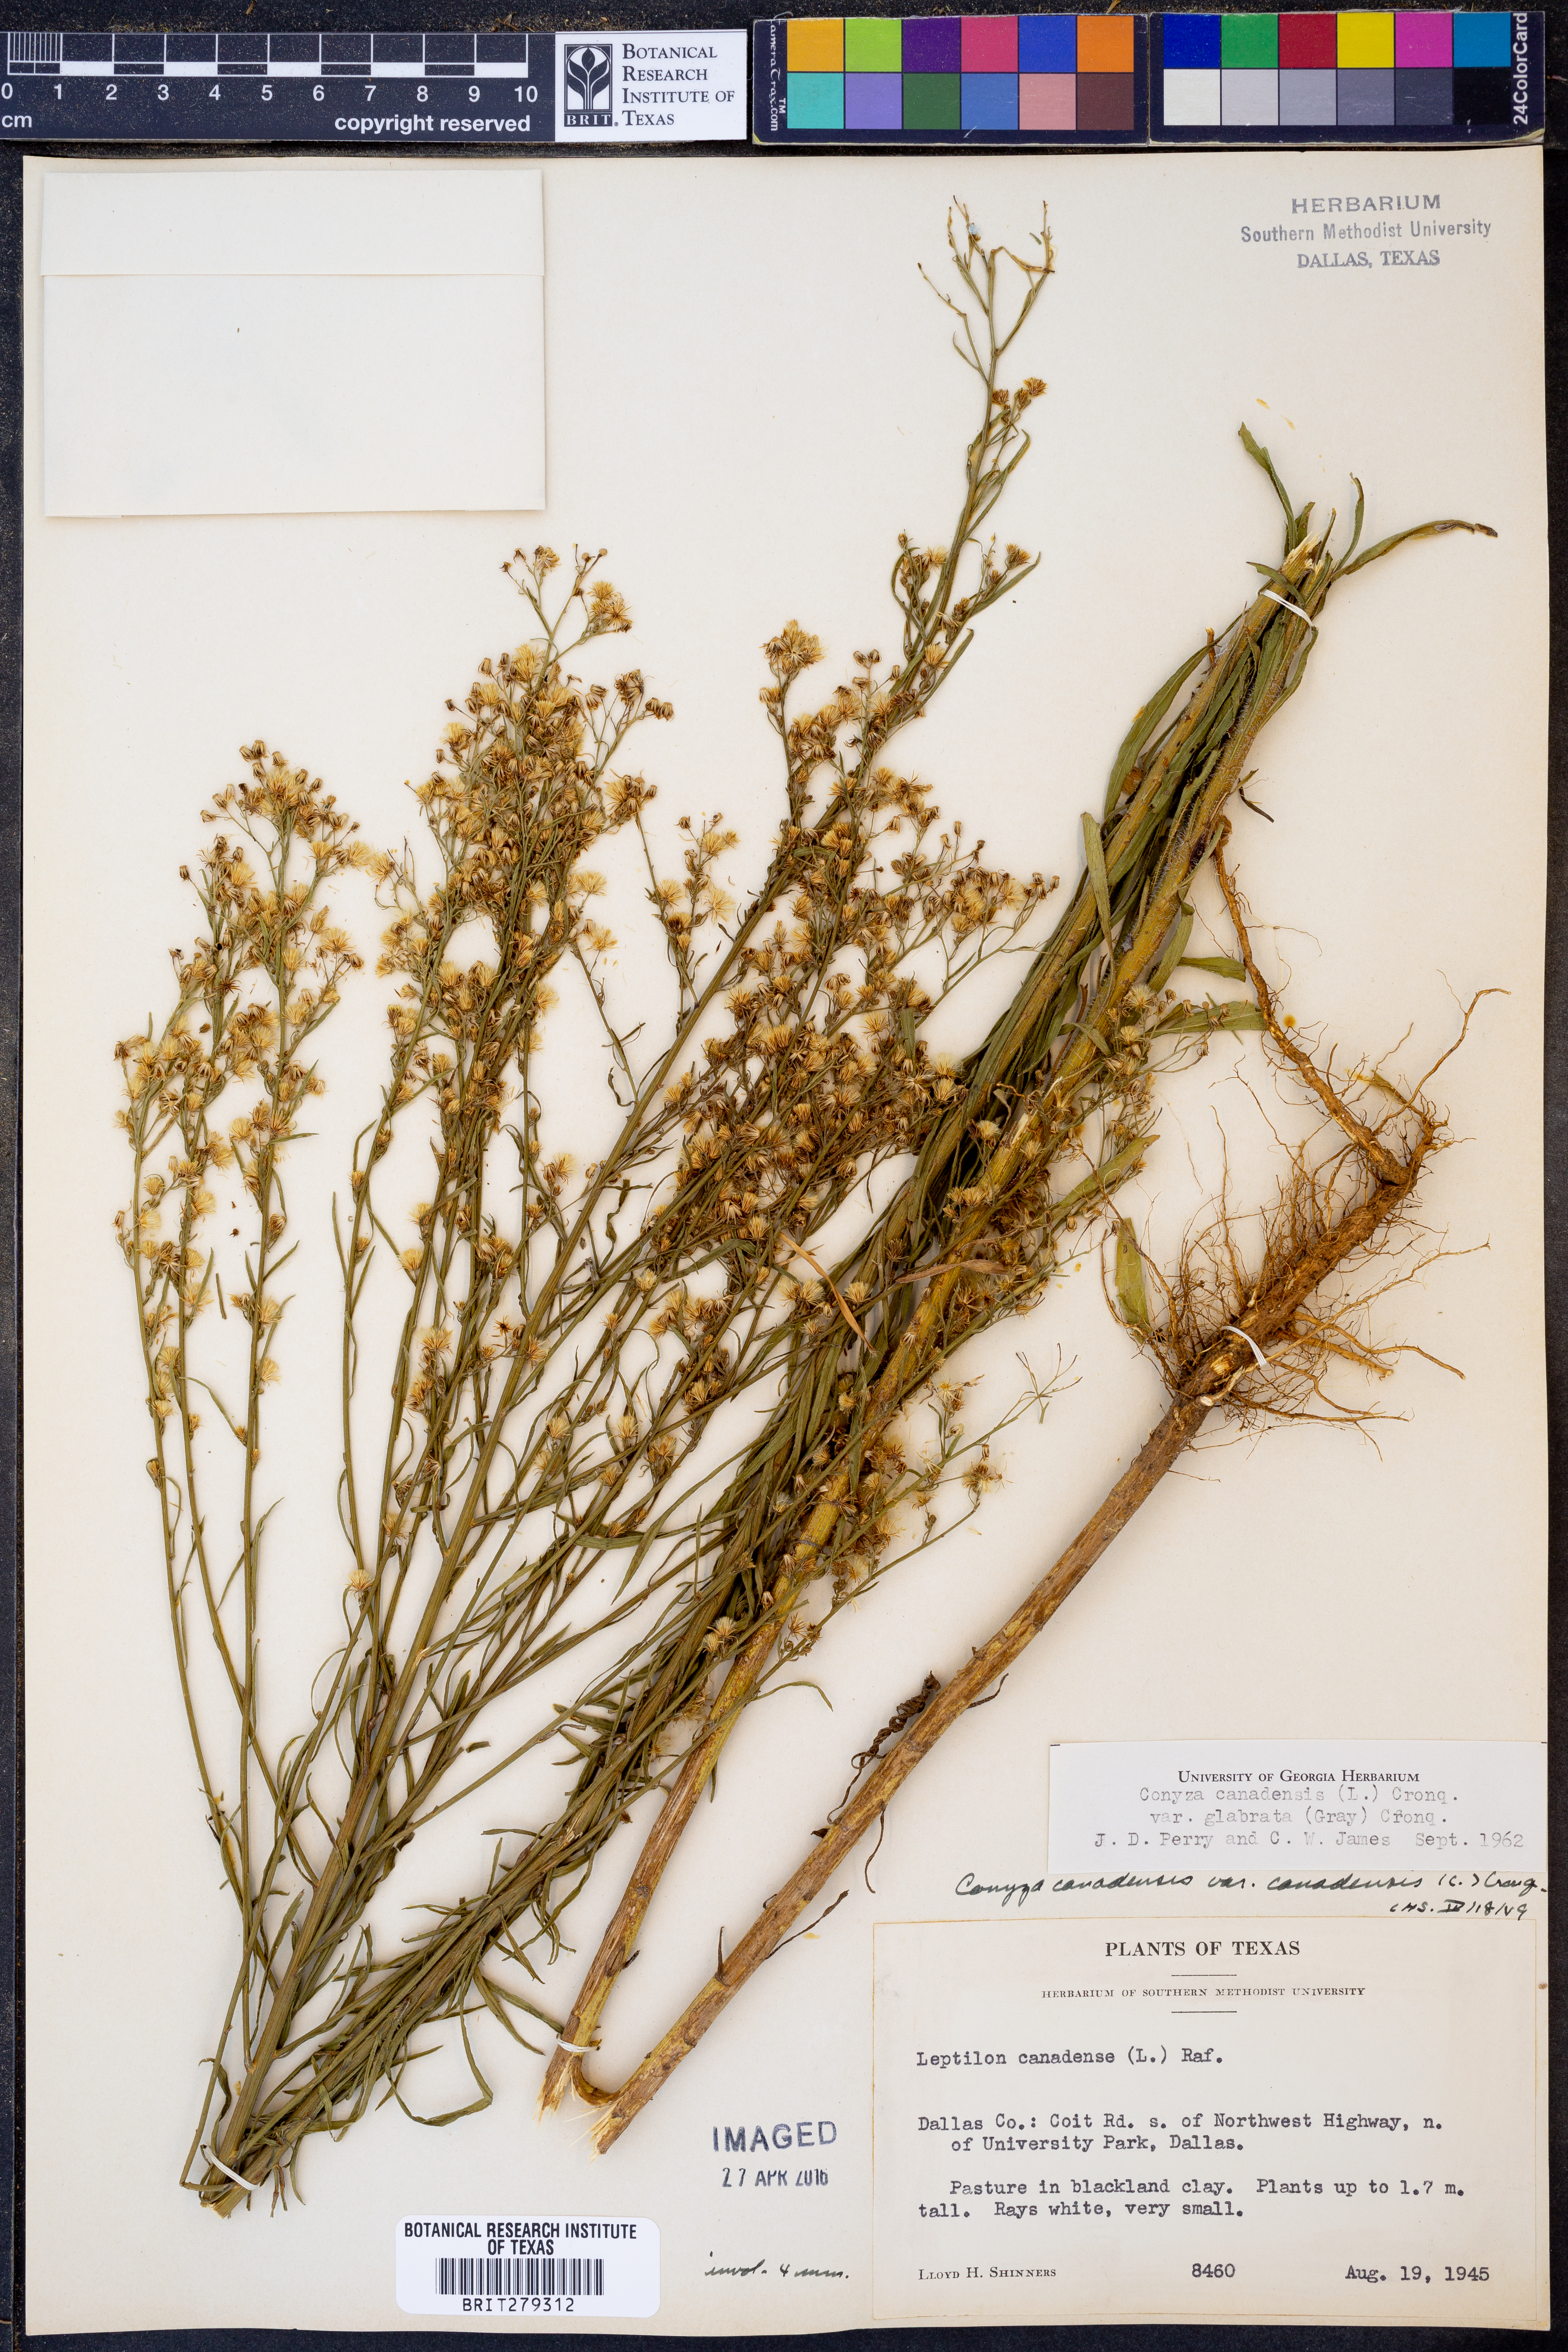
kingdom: Plantae
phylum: Tracheophyta
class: Magnoliopsida
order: Asterales
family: Asteraceae
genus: Erigeron
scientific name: Erigeron canadensis
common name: Canadian fleabane
